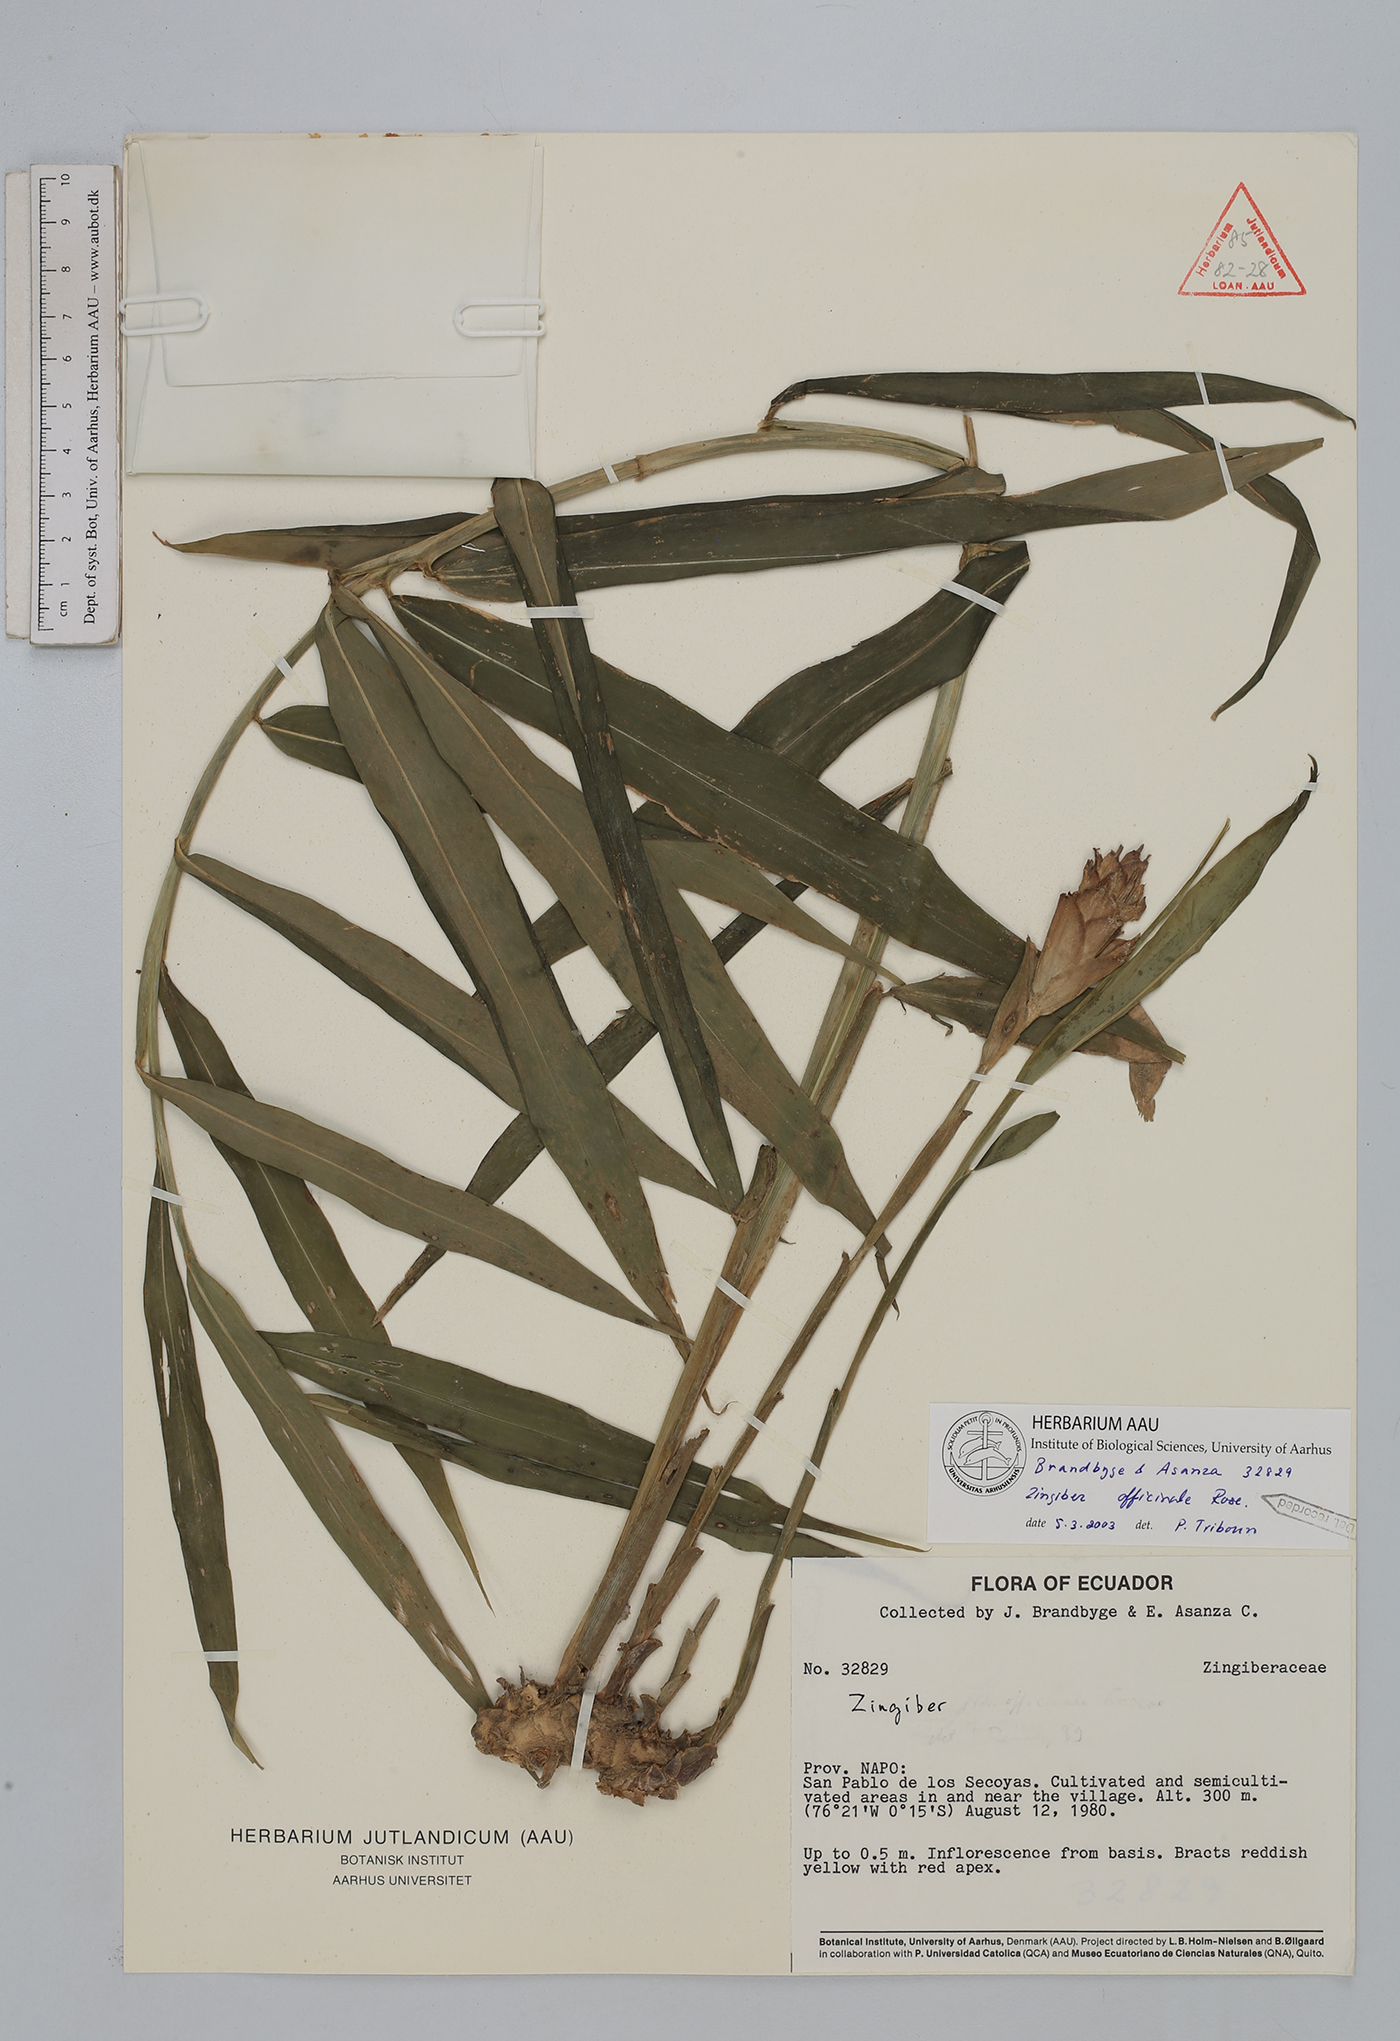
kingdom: Plantae
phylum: Tracheophyta
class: Liliopsida
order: Zingiberales
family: Zingiberaceae
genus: Zingiber
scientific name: Zingiber officinale
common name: Ginger
